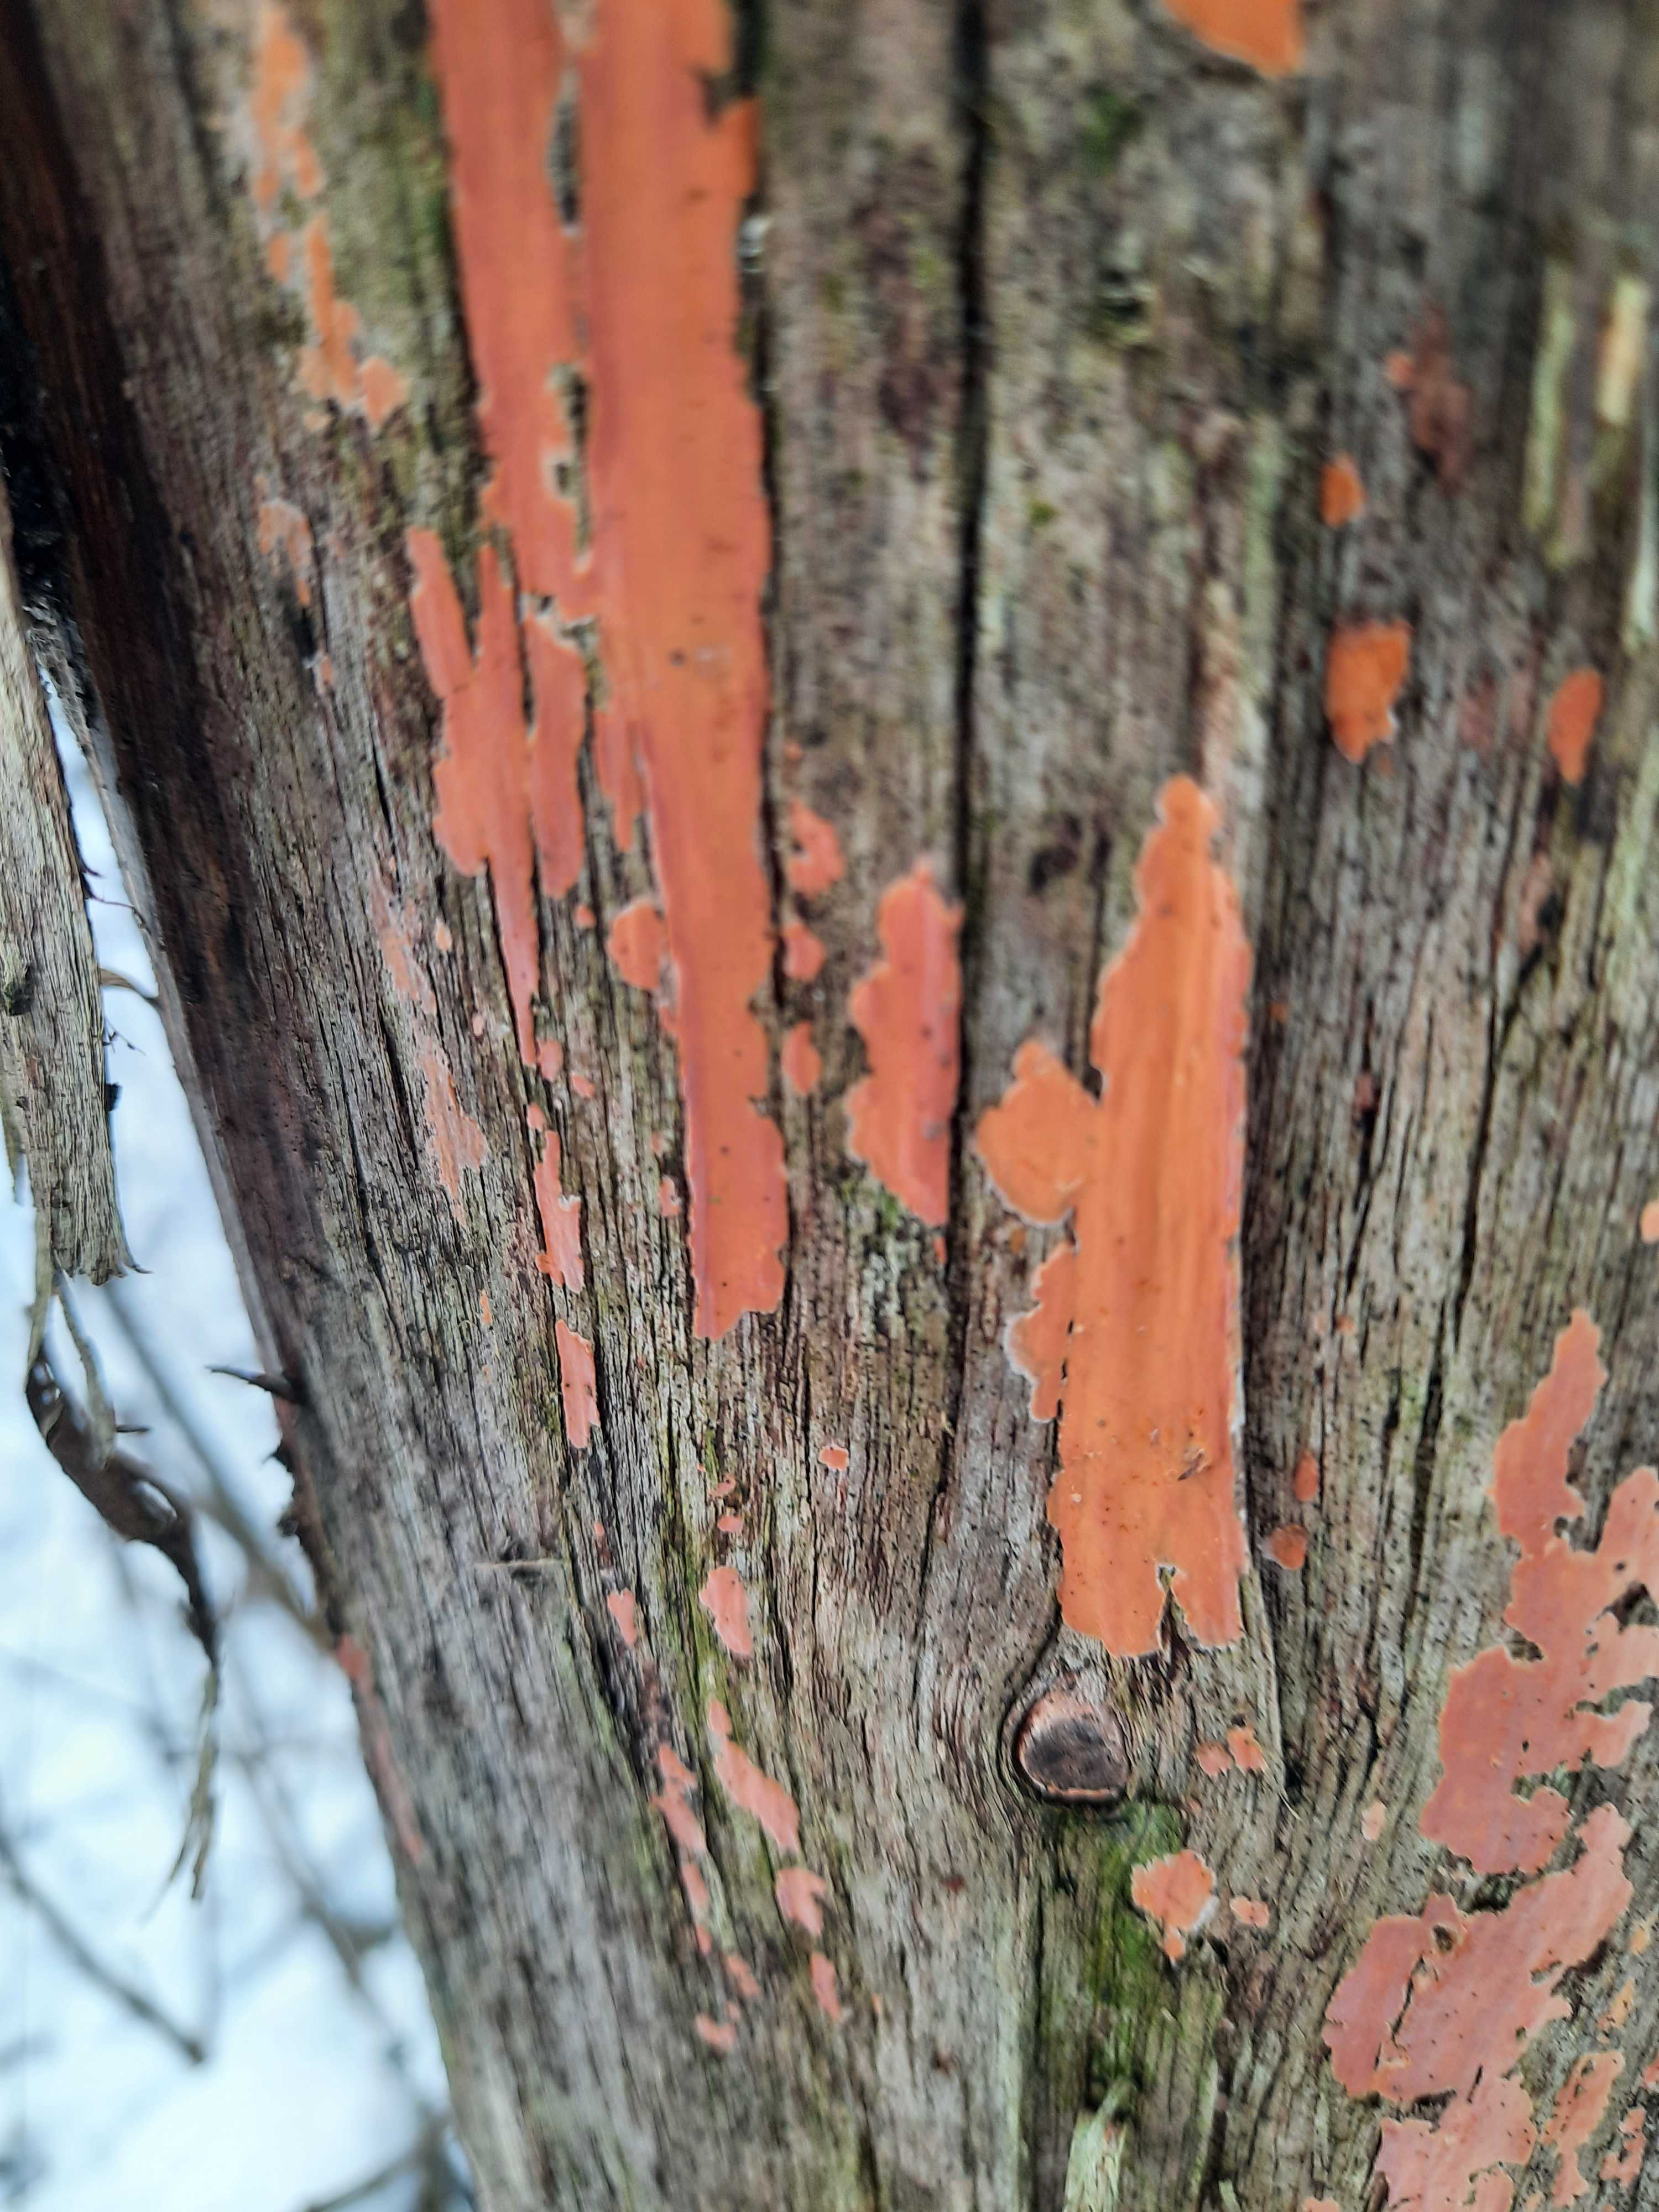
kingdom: Fungi
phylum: Basidiomycota
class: Agaricomycetes
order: Russulales
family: Peniophoraceae
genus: Peniophora
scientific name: Peniophora incarnata
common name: laksefarvet voksskind
